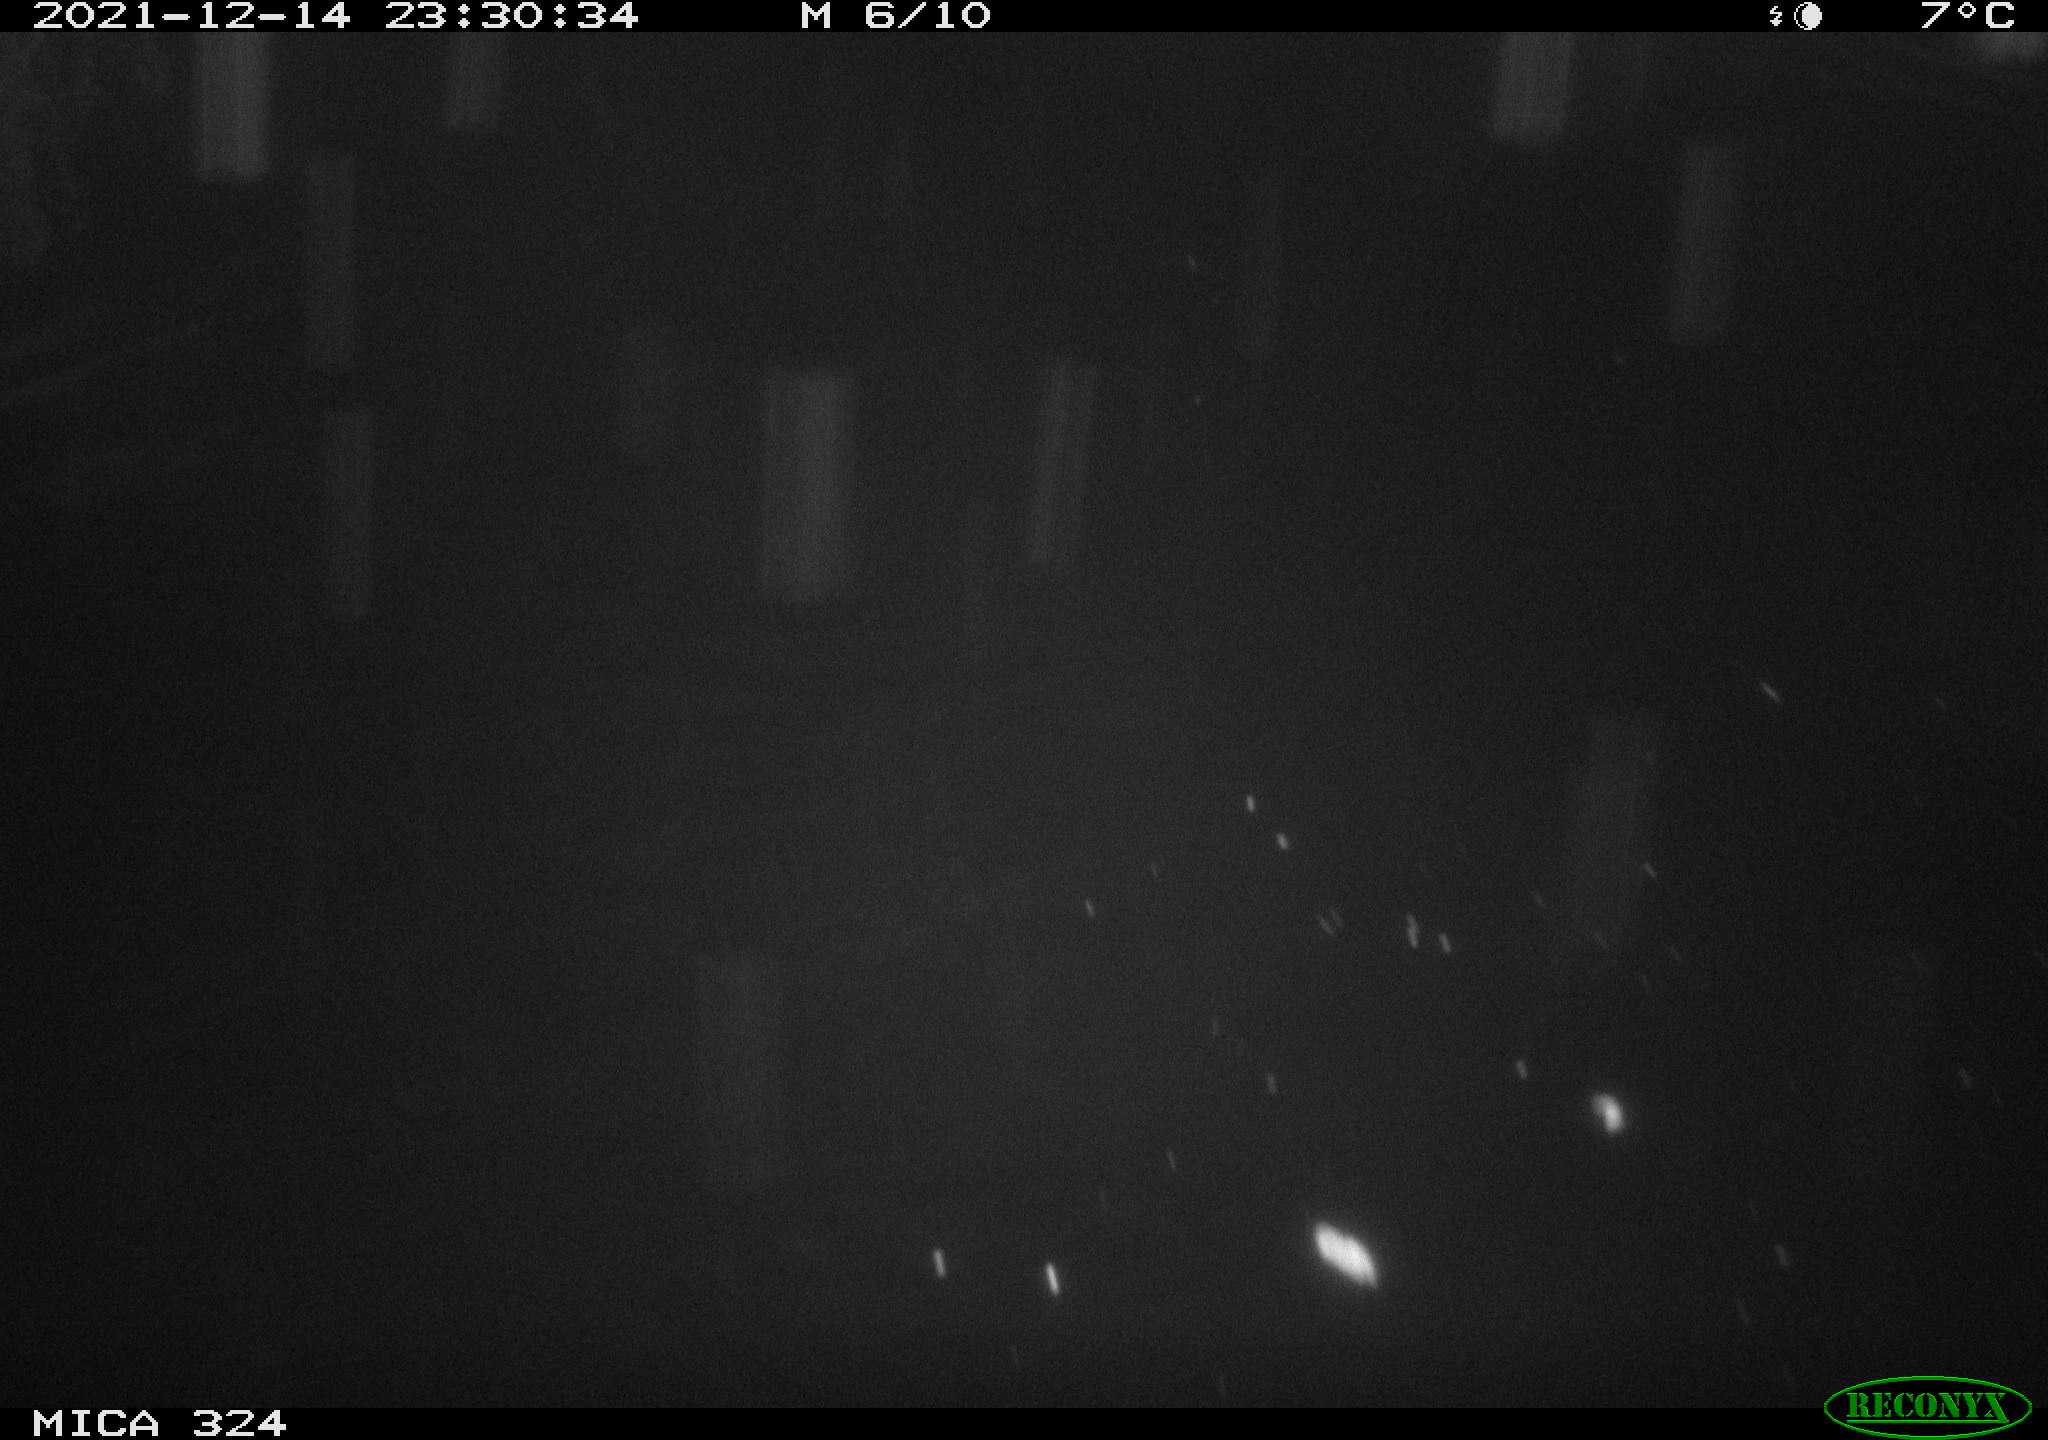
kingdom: Animalia
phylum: Chordata
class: Mammalia
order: Rodentia
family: Myocastoridae
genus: Myocastor
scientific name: Myocastor coypus
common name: Coypu
